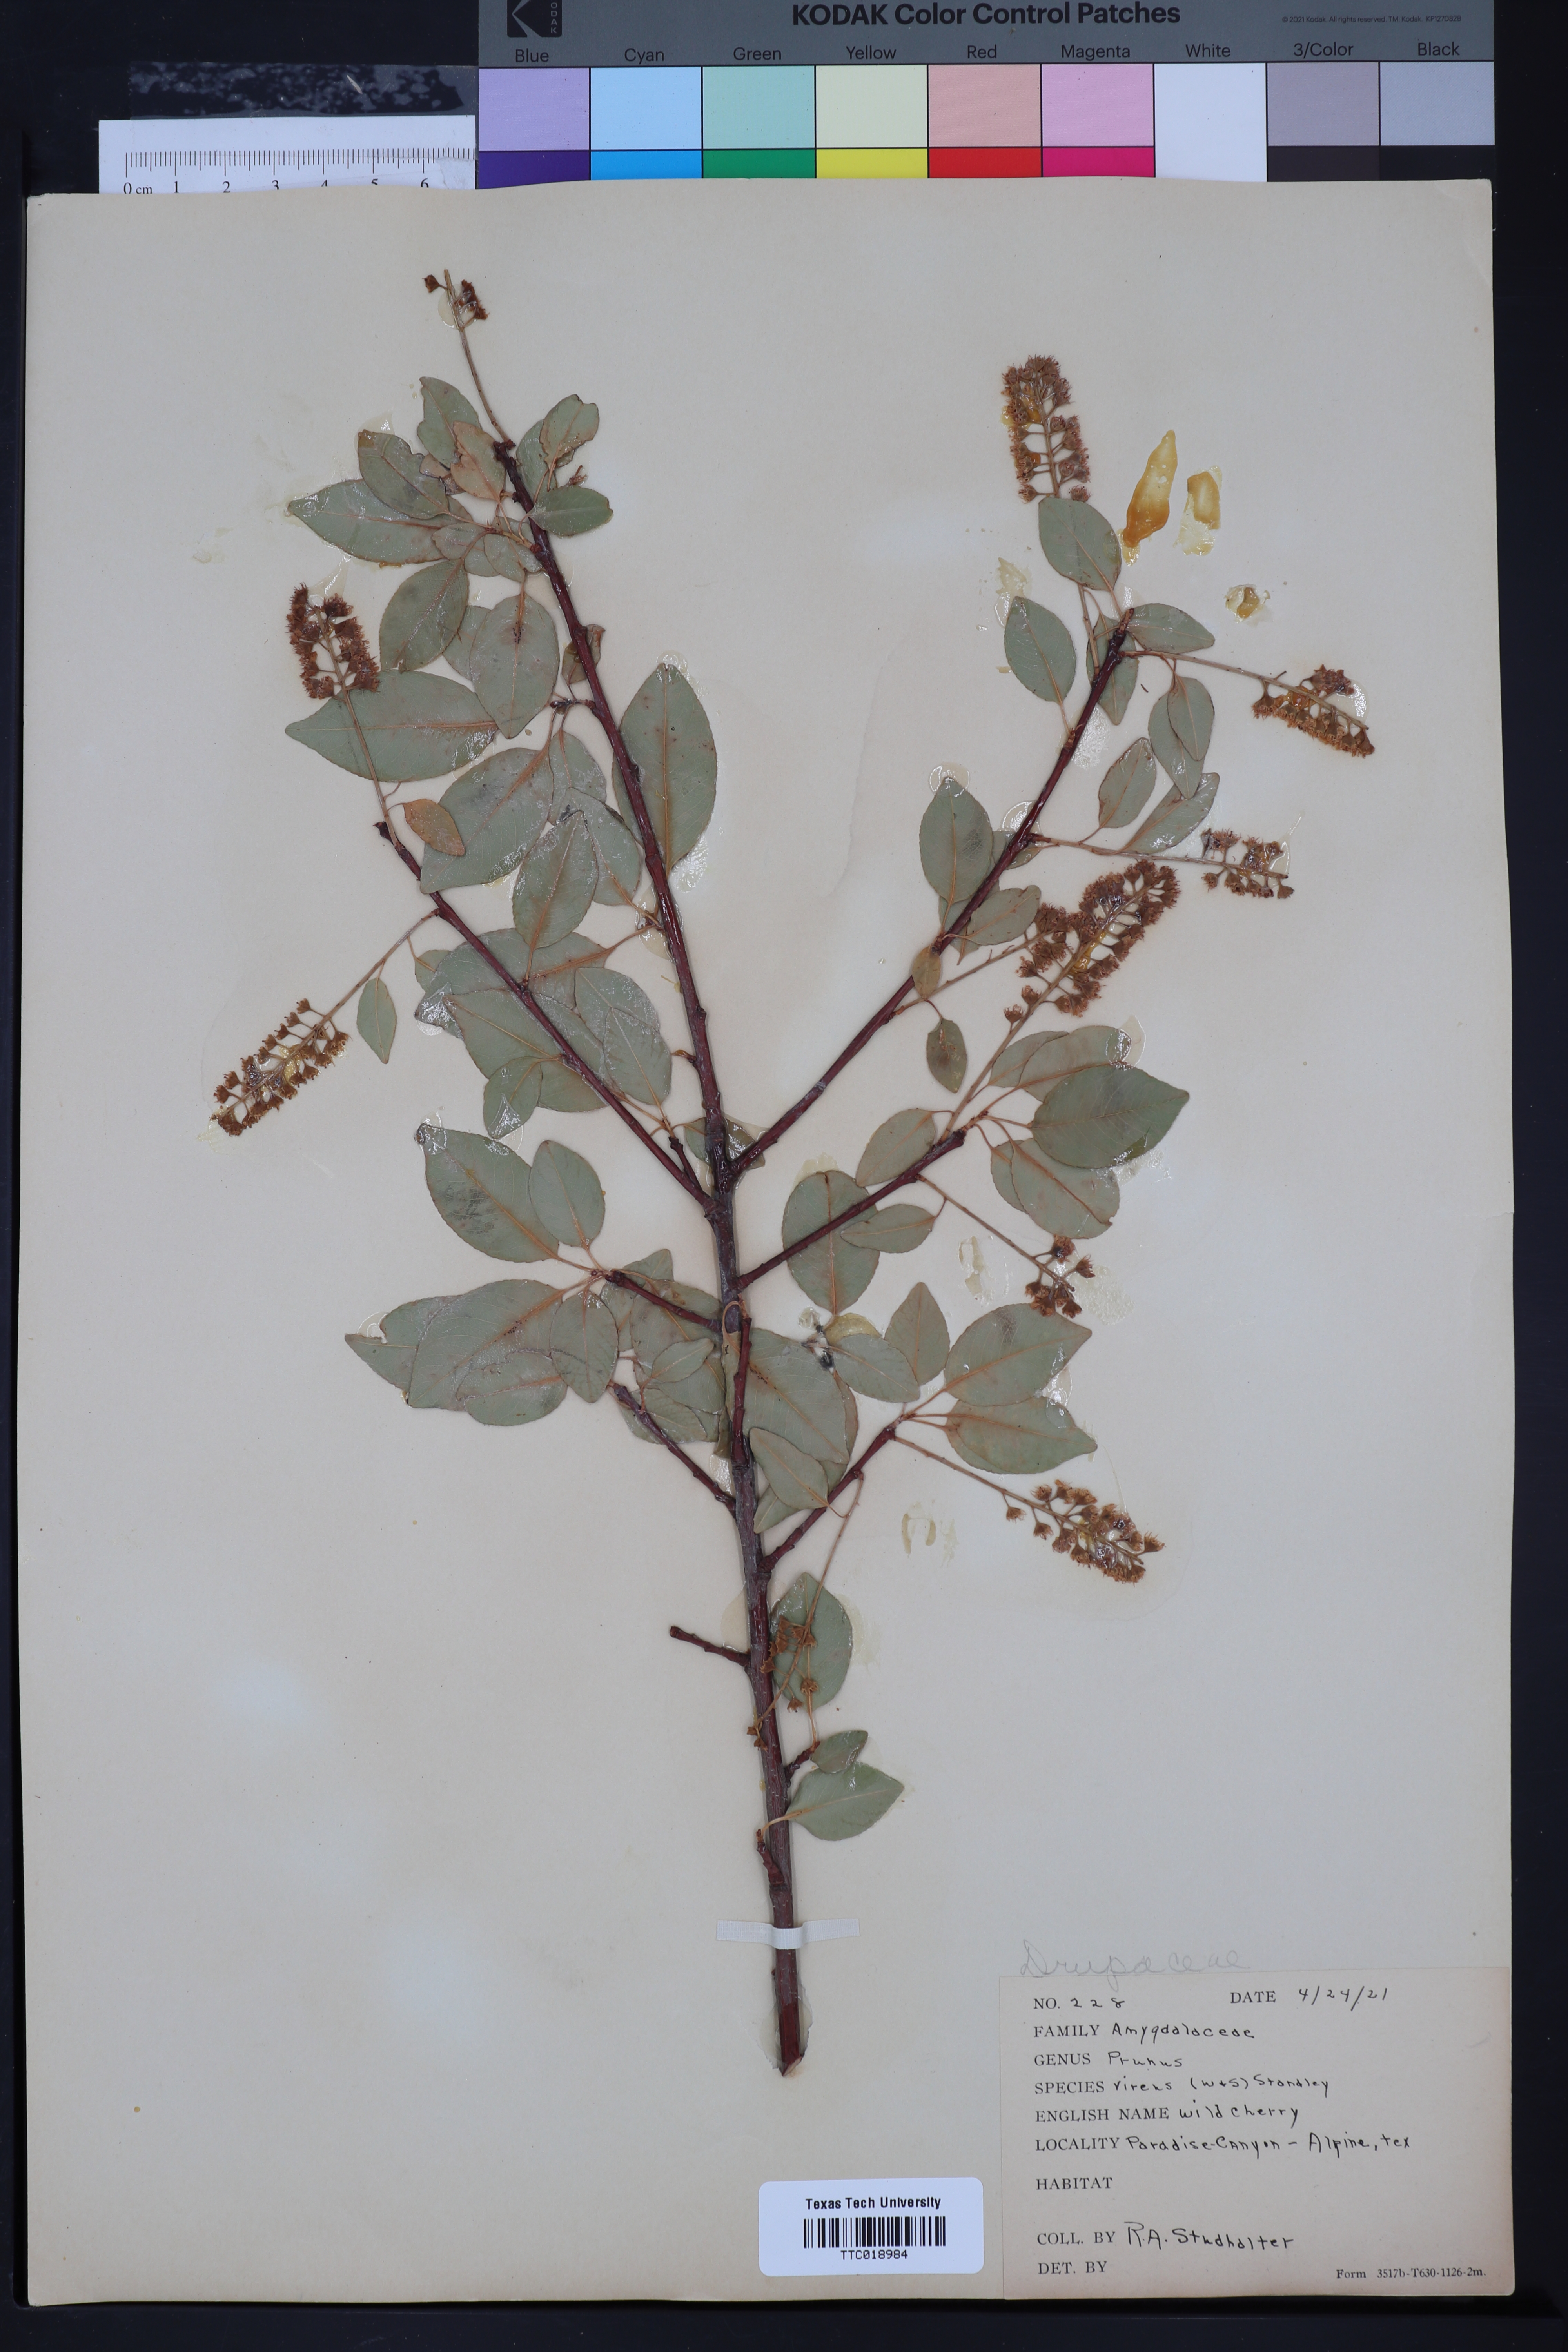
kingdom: Plantae
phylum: Tracheophyta
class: Magnoliopsida
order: Rosales
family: Rosaceae
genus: Prunus
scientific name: Prunus serotina
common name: Black cherry
